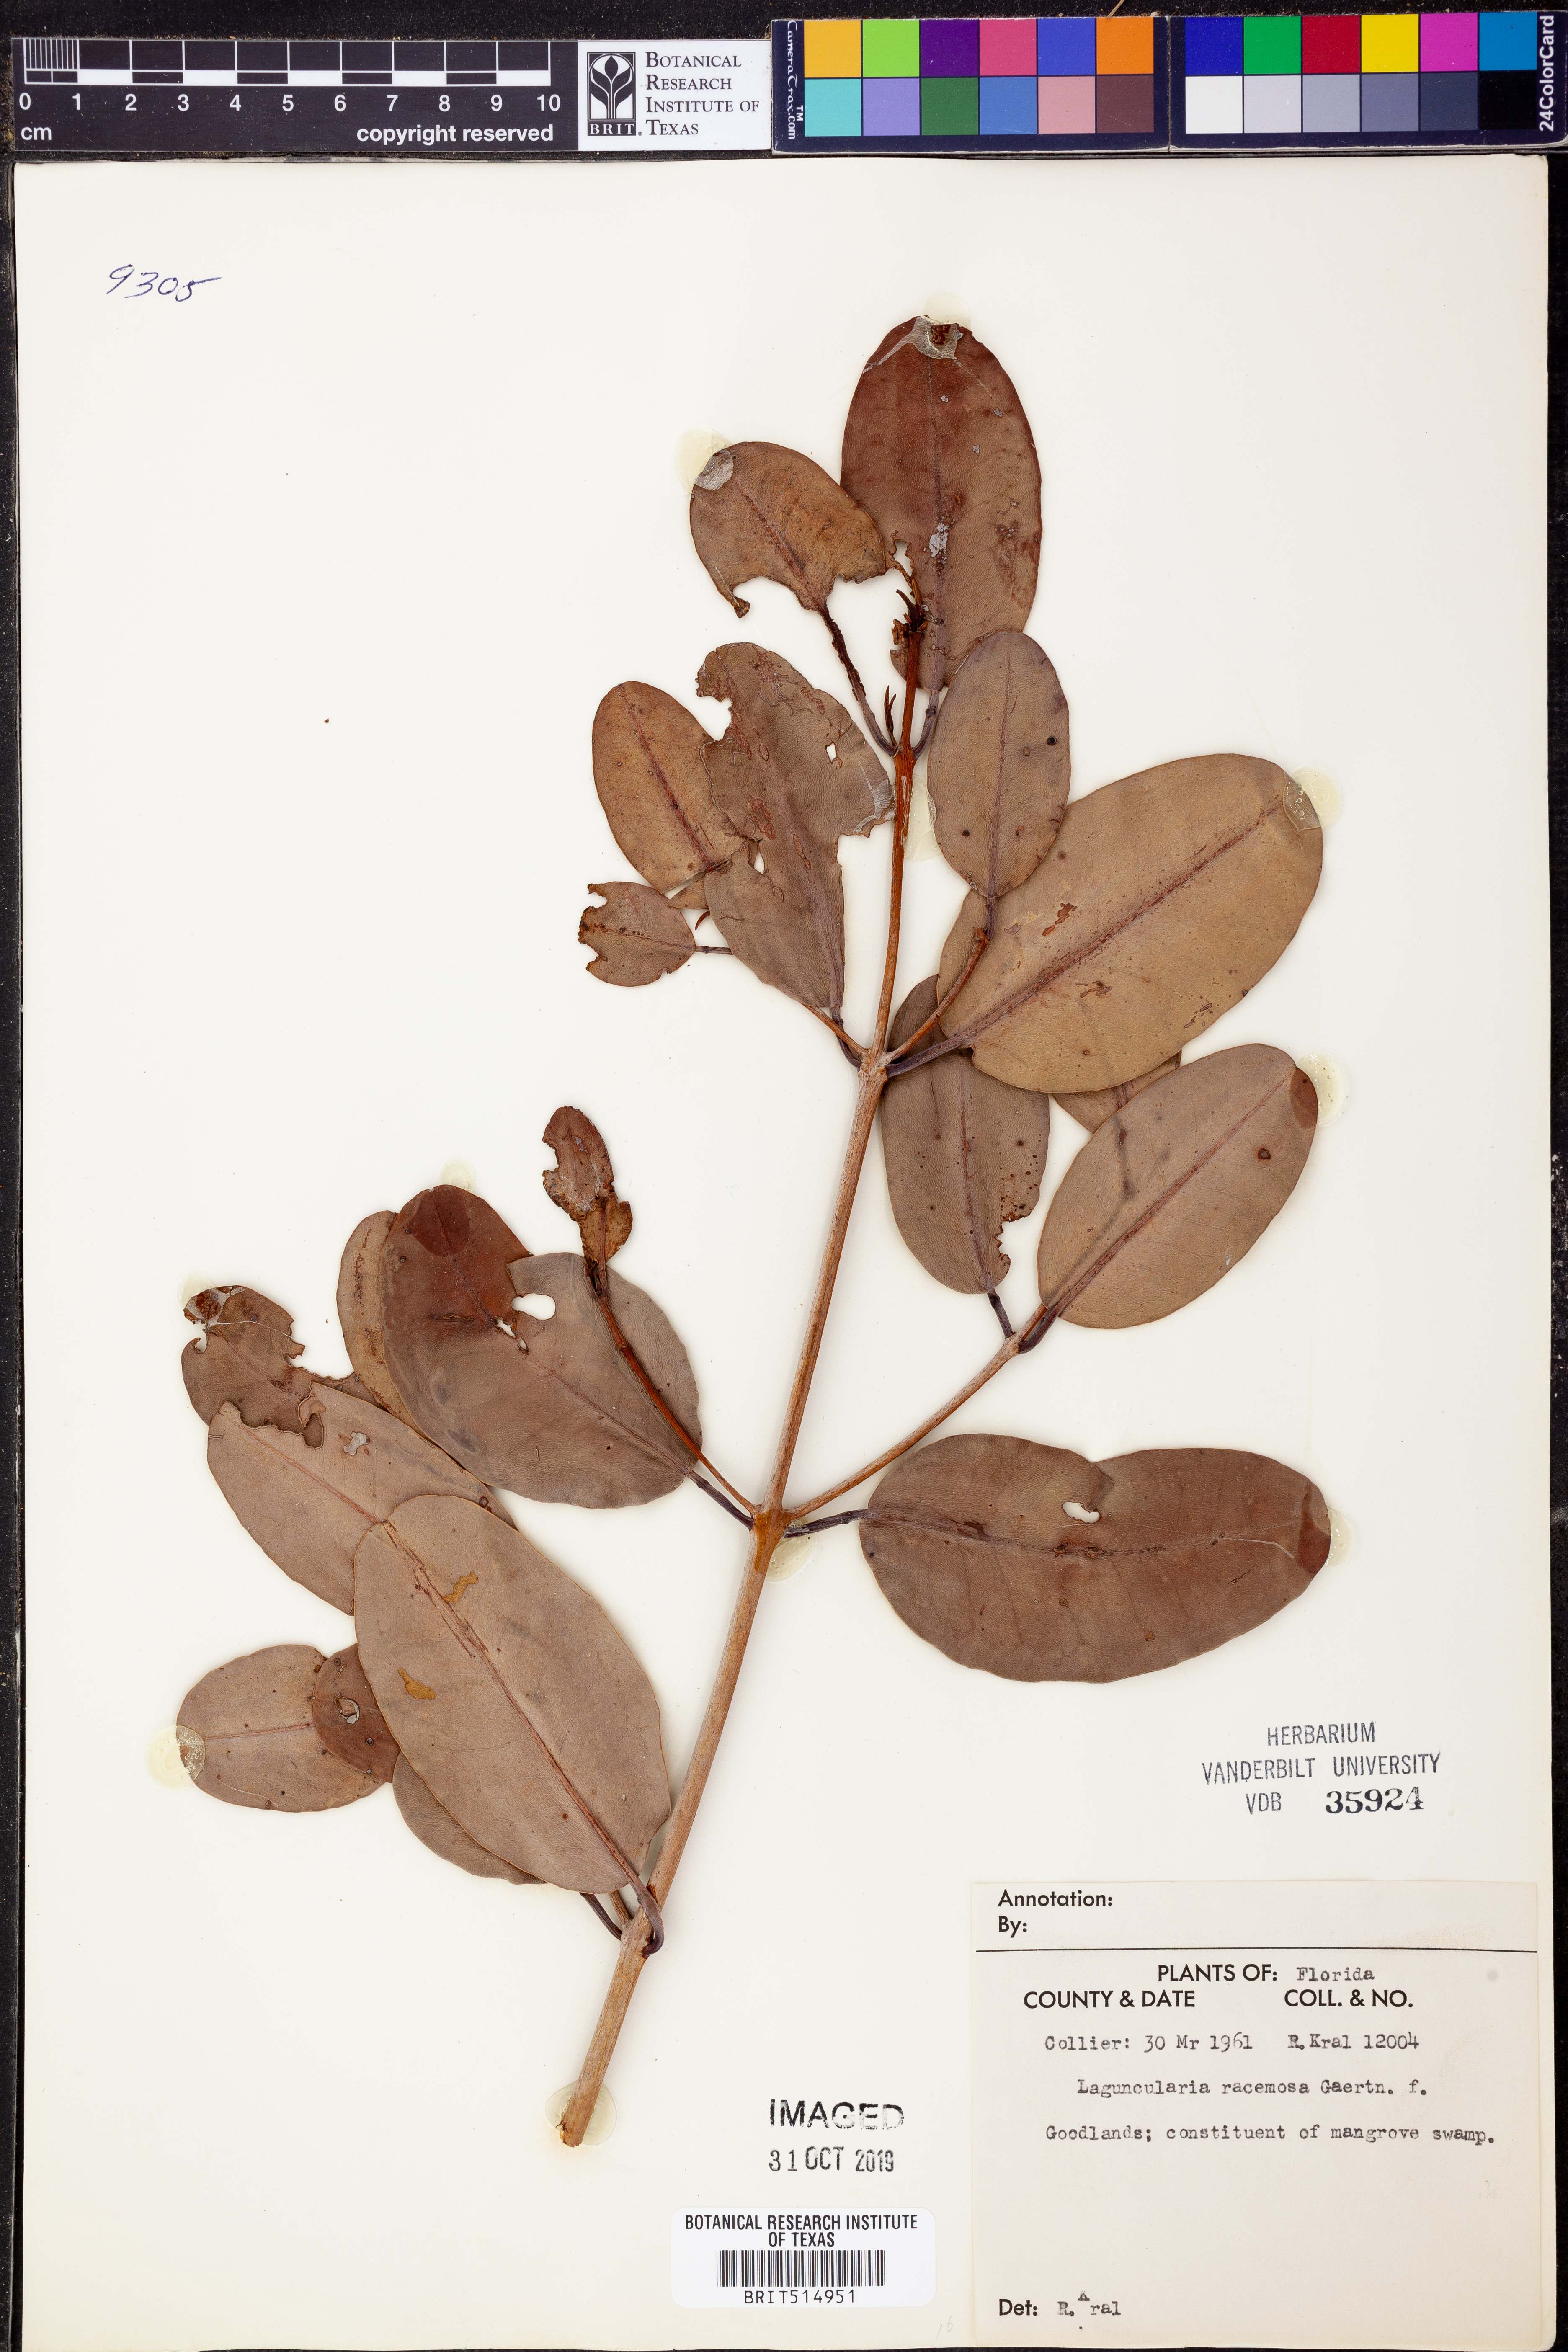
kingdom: Plantae
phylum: Tracheophyta
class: Magnoliopsida
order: Myrtales
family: Combretaceae
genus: Laguncularia
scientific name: Laguncularia racemosa
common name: White mangrove
